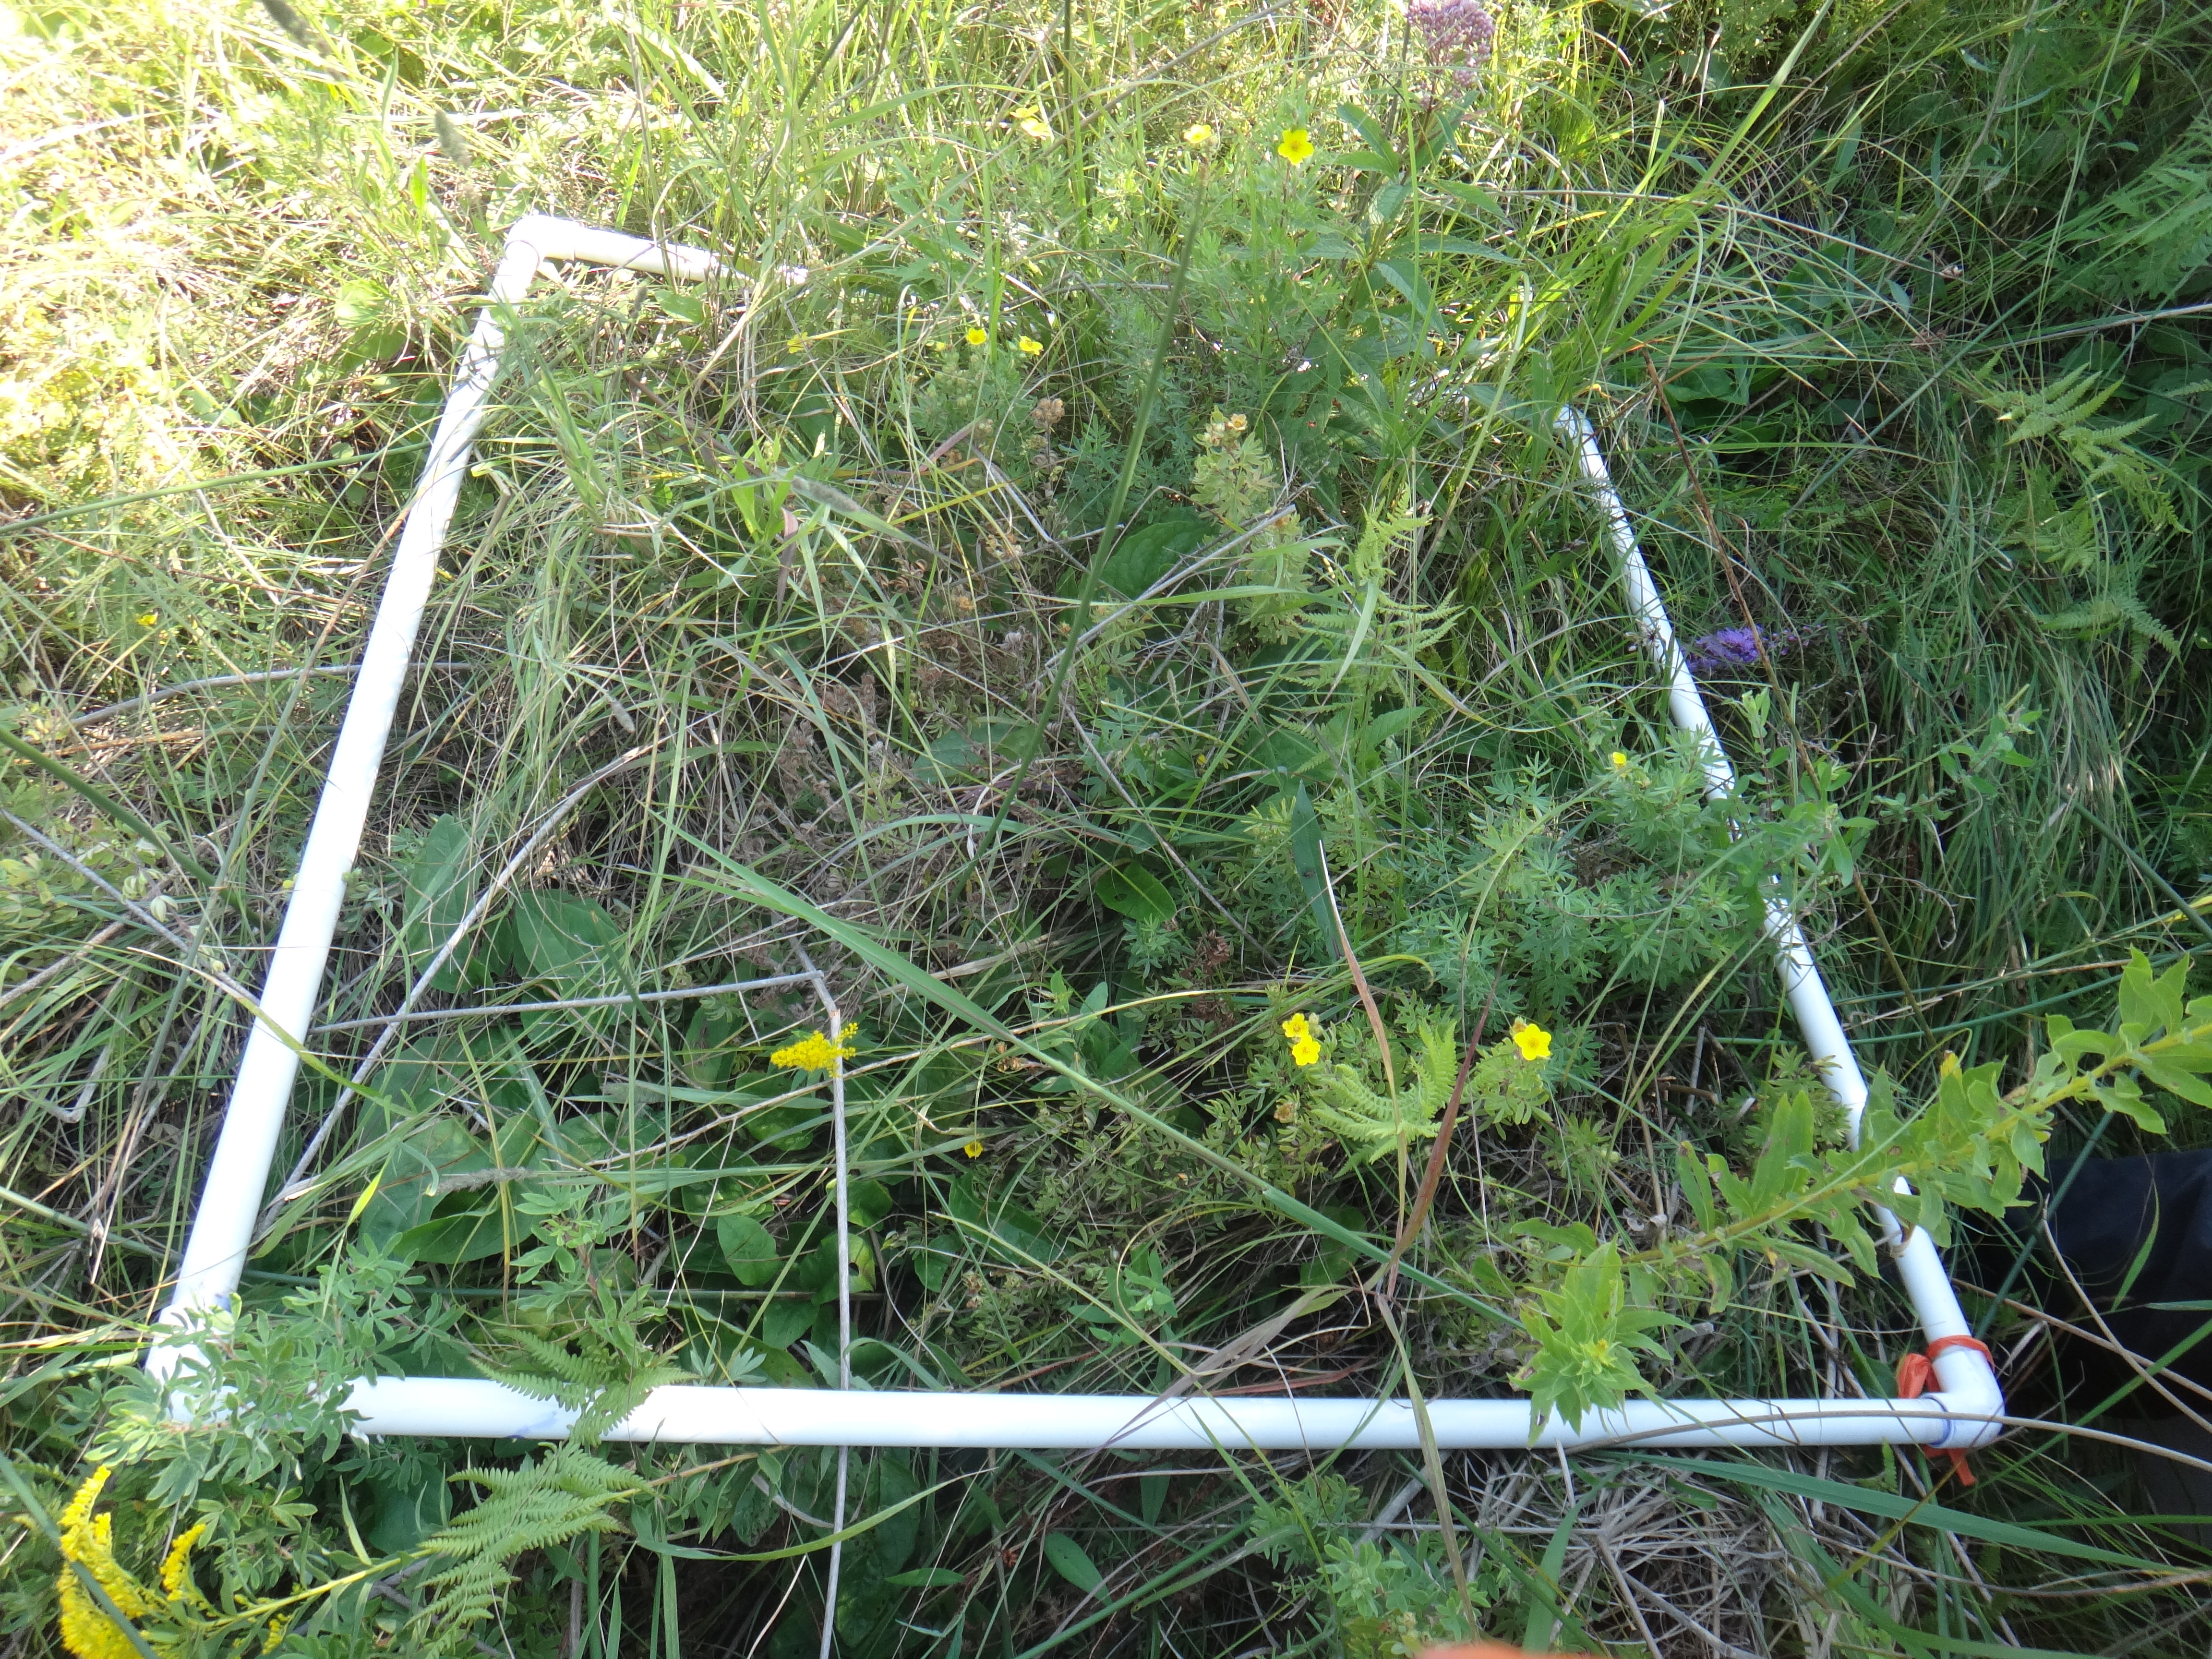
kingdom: Plantae
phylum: Tracheophyta
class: Magnoliopsida
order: Dipsacales
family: Caprifoliaceae
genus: Valeriana
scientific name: Valeriana uliginosa
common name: Marsh valerian
